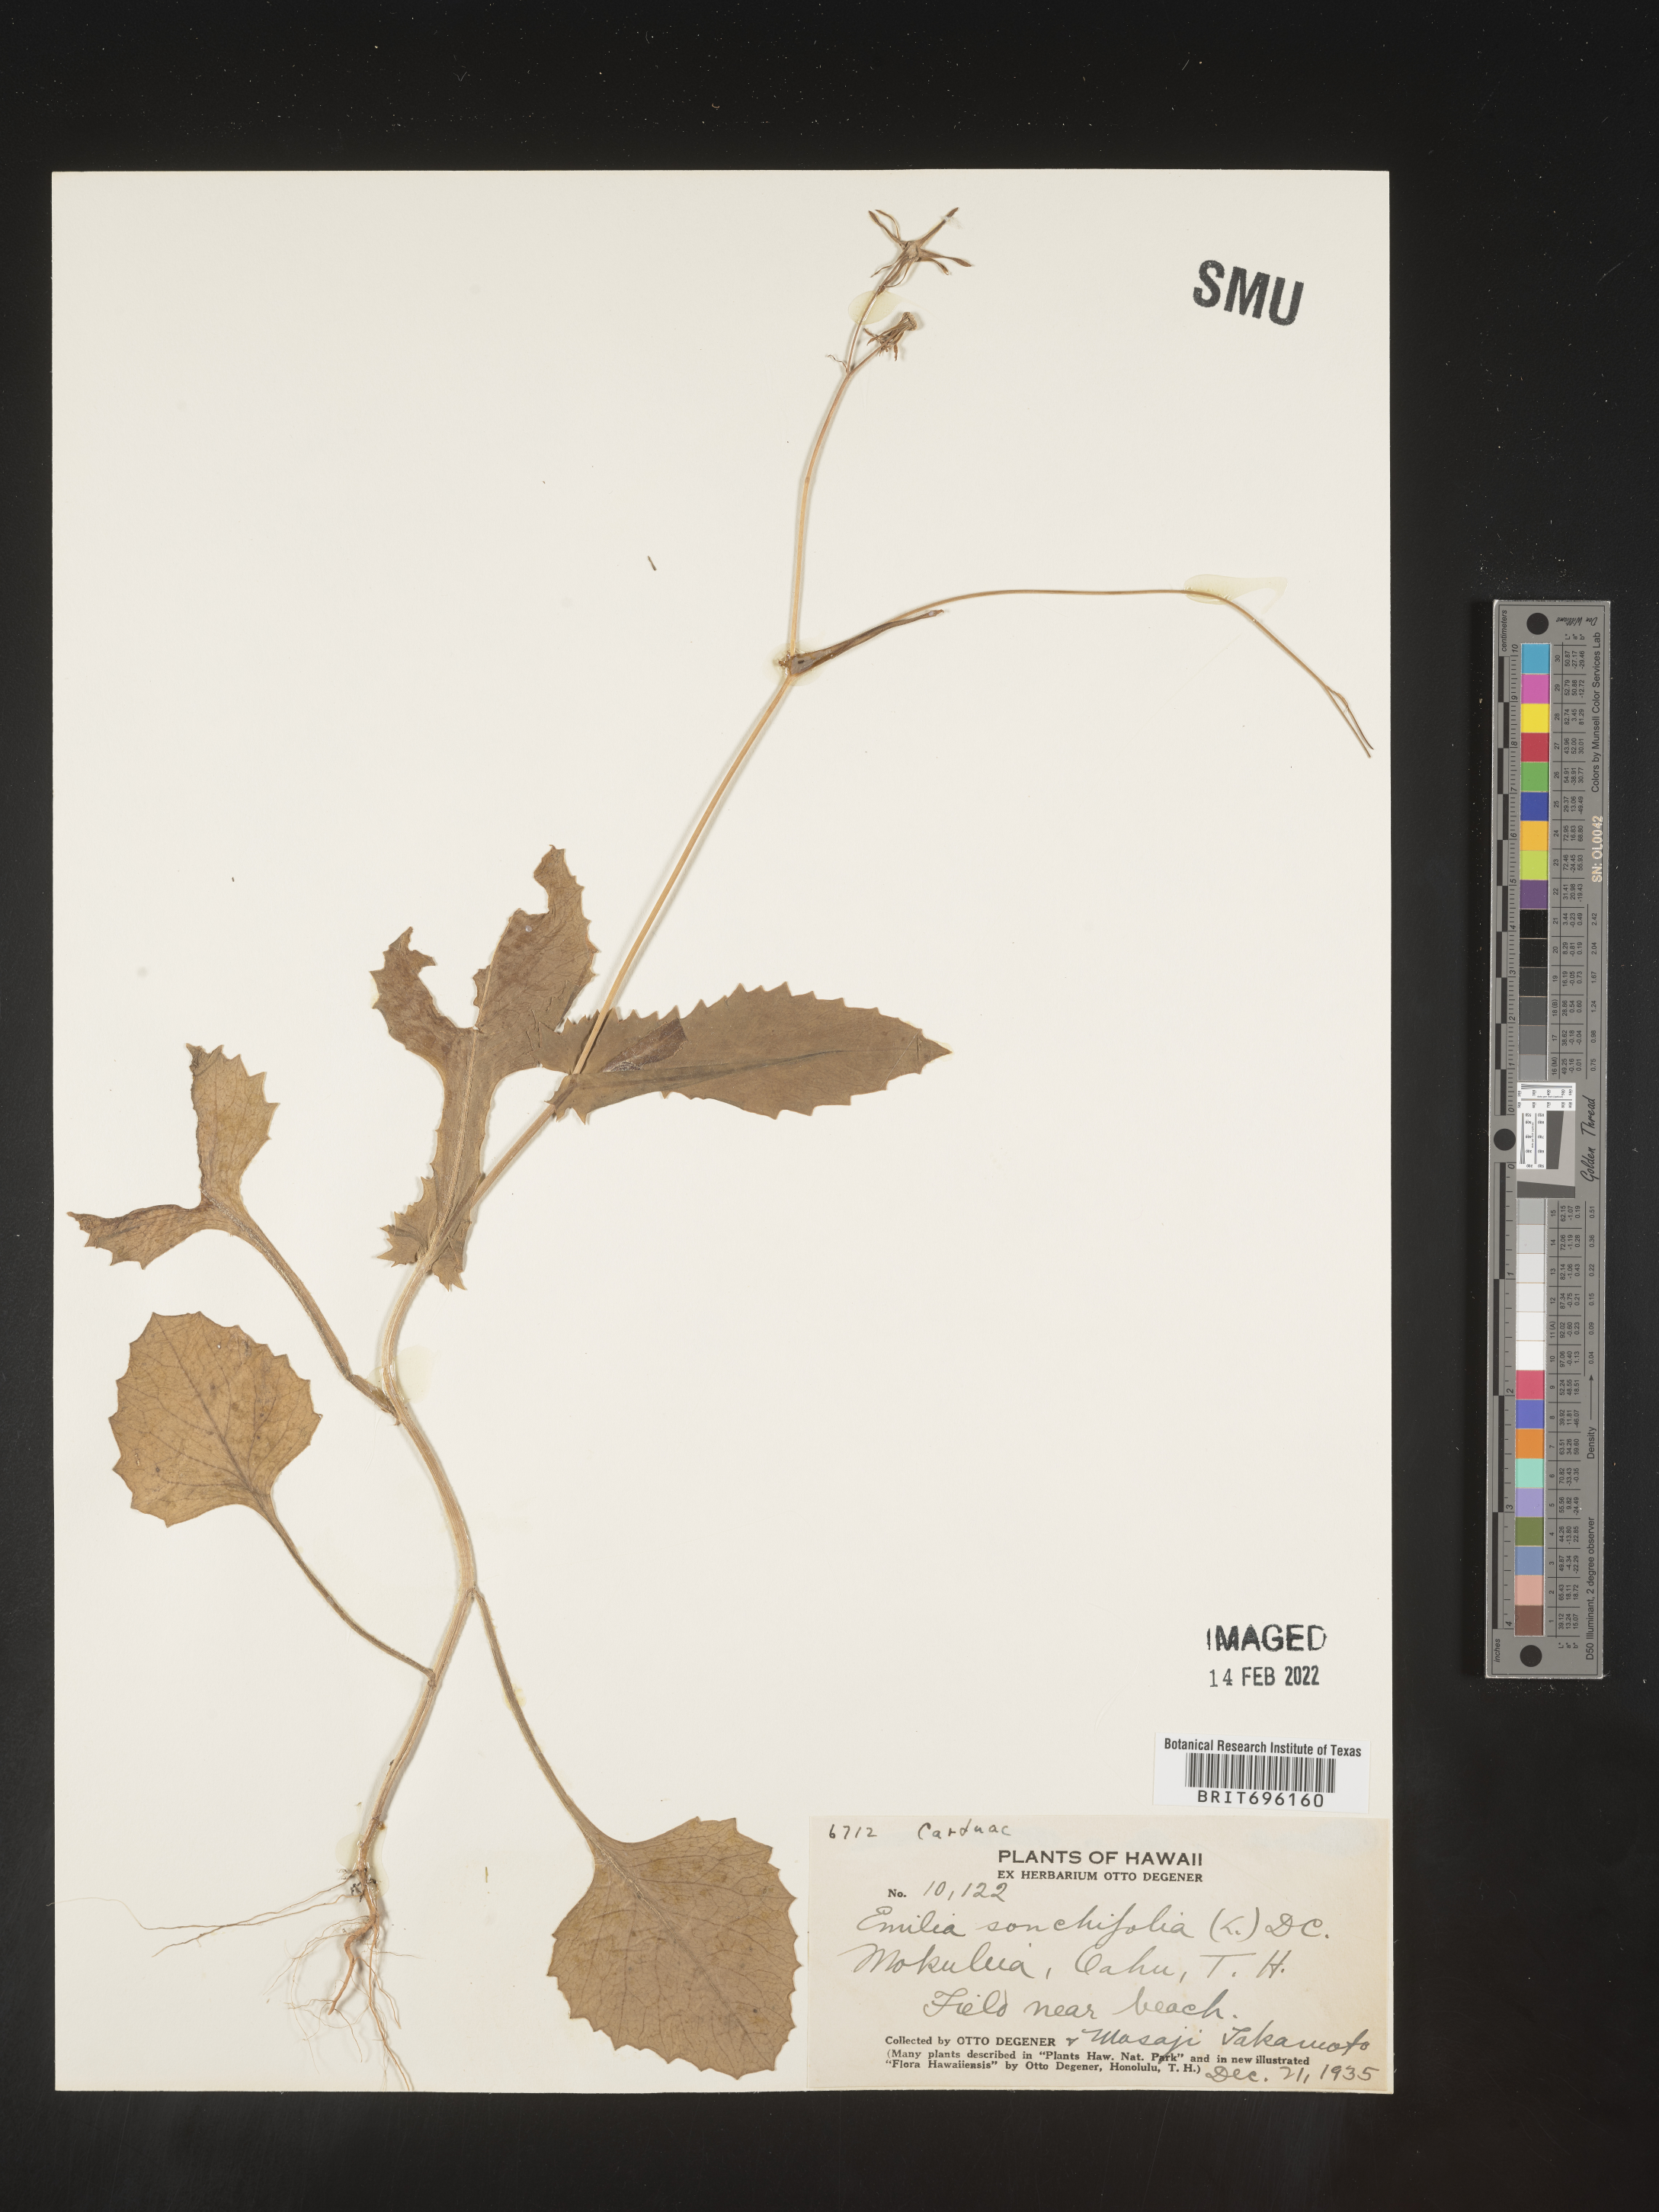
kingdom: Plantae
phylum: Tracheophyta
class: Magnoliopsida
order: Asterales
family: Asteraceae
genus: Emilia
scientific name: Emilia
